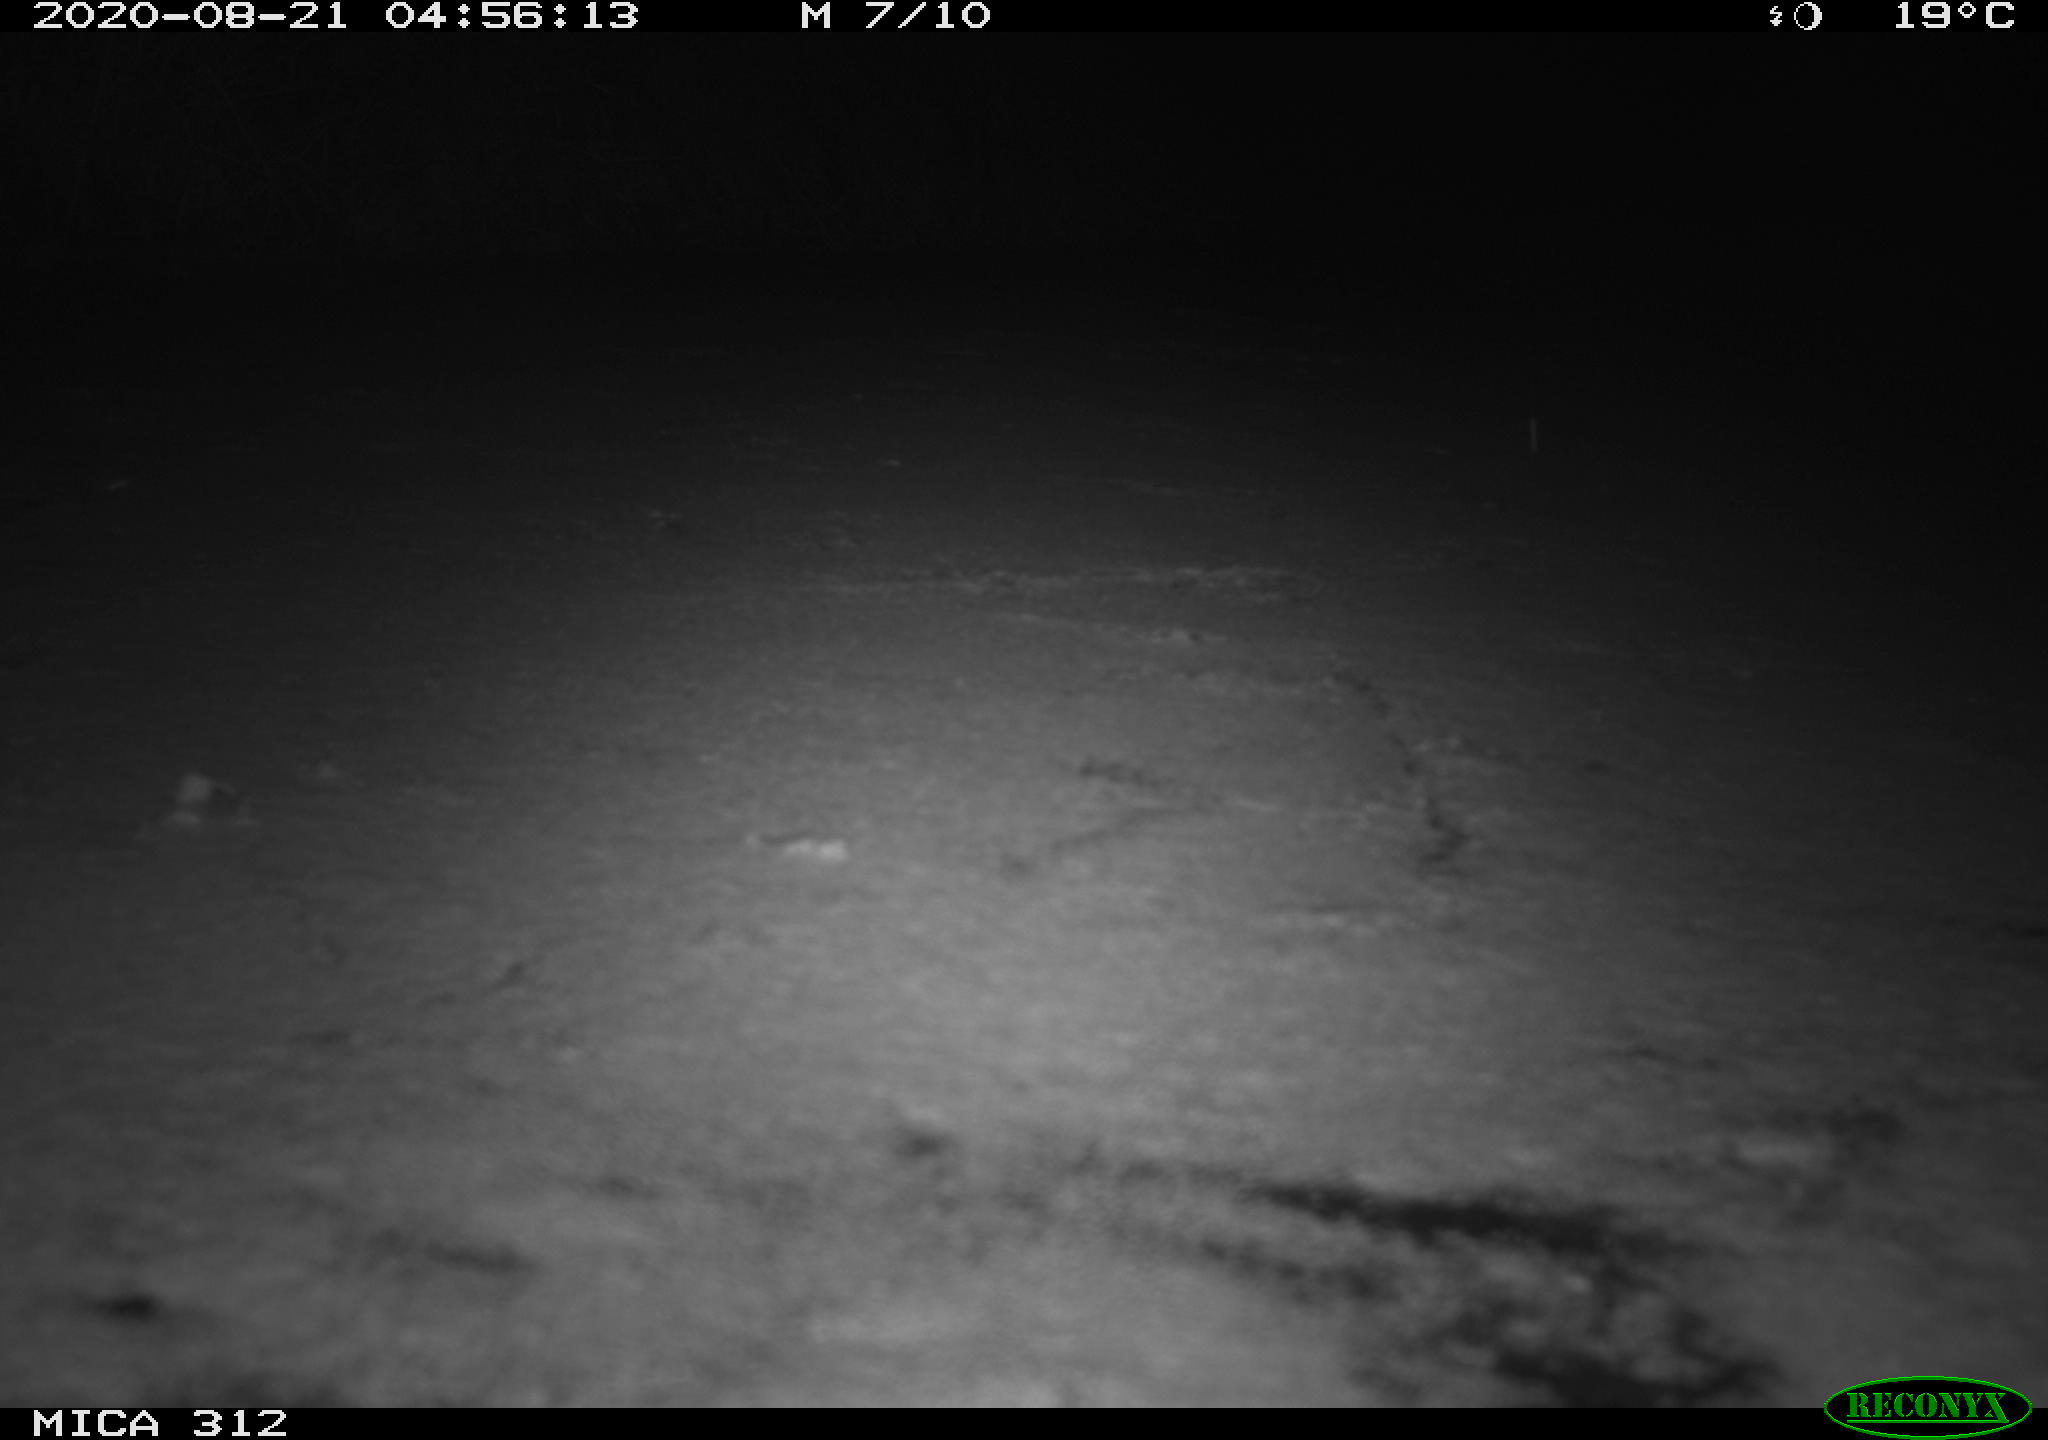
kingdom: Animalia
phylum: Chordata
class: Mammalia
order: Rodentia
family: Cricetidae
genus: Ondatra
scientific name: Ondatra zibethicus
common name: Muskrat
